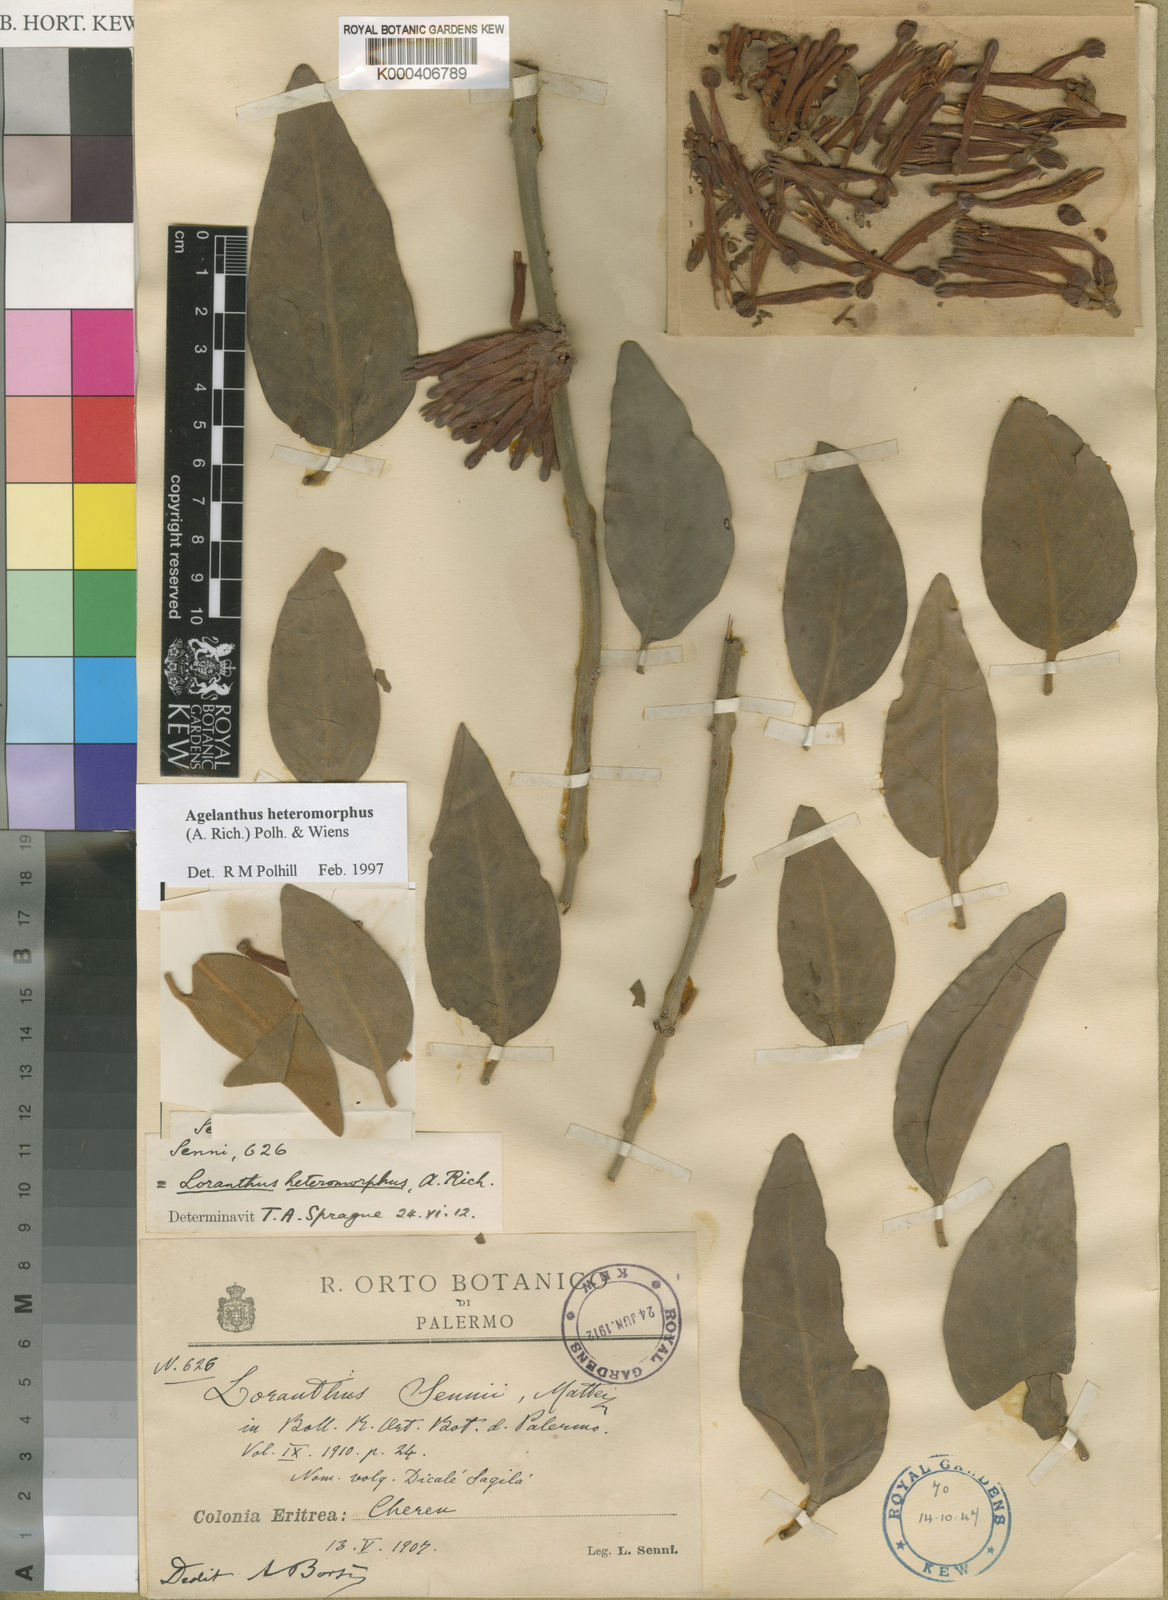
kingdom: Plantae
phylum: Tracheophyta
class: Magnoliopsida
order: Santalales
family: Loranthaceae
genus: Agelanthus
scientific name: Agelanthus heteromorphus
